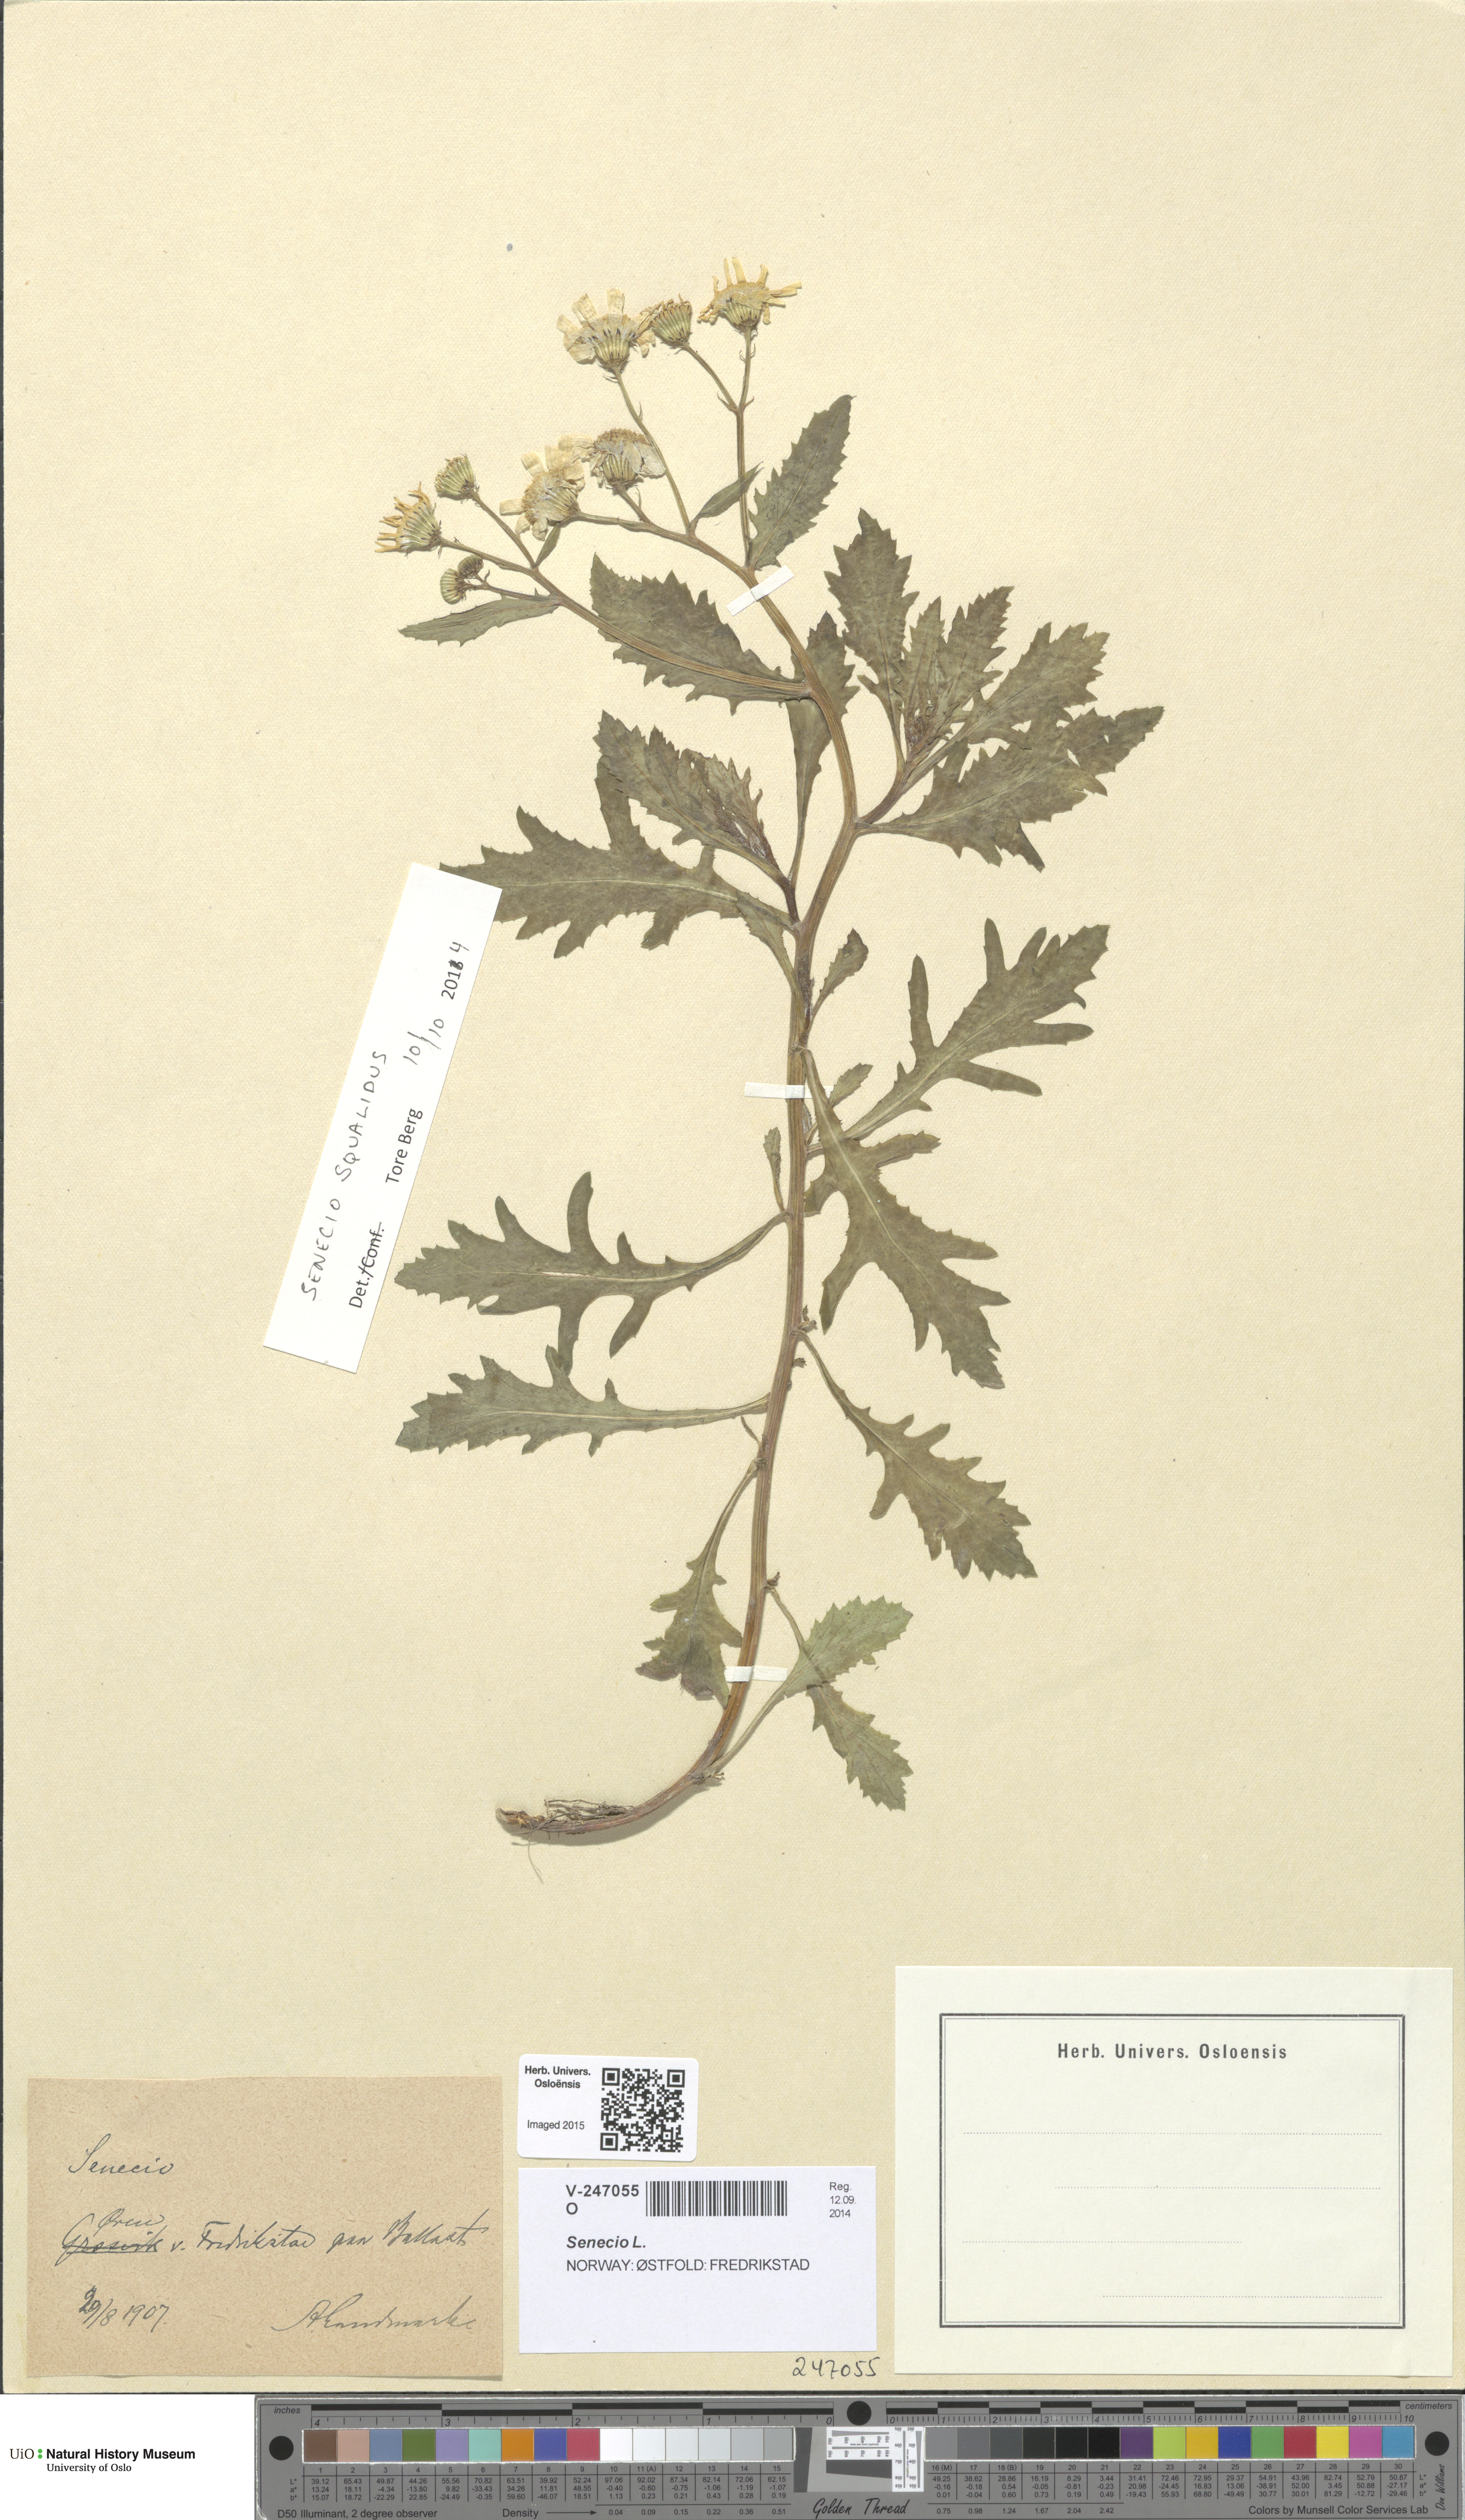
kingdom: Plantae
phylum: Tracheophyta
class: Magnoliopsida
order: Asterales
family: Asteraceae
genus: Senecio
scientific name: Senecio squalidus
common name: Oxford ragwort
